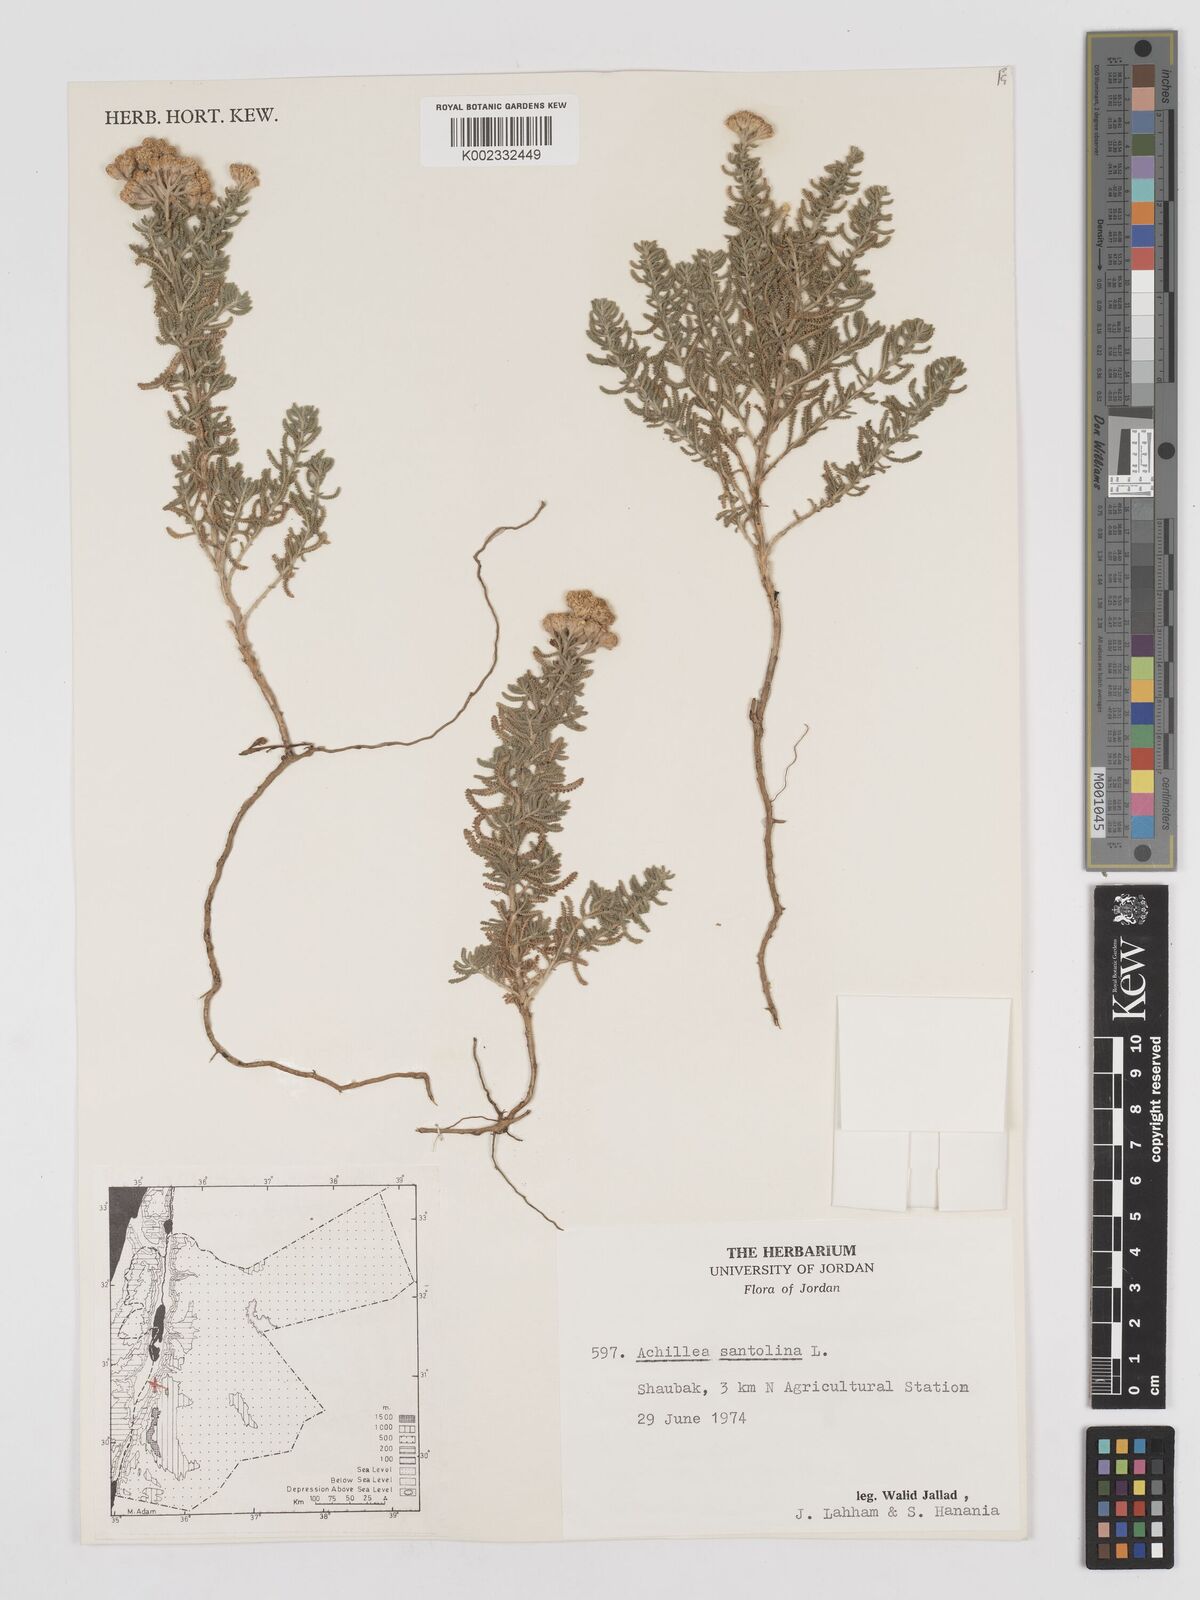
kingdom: Plantae
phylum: Tracheophyta
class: Magnoliopsida
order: Asterales
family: Asteraceae
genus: Achillea
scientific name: Achillea tenuifolia
